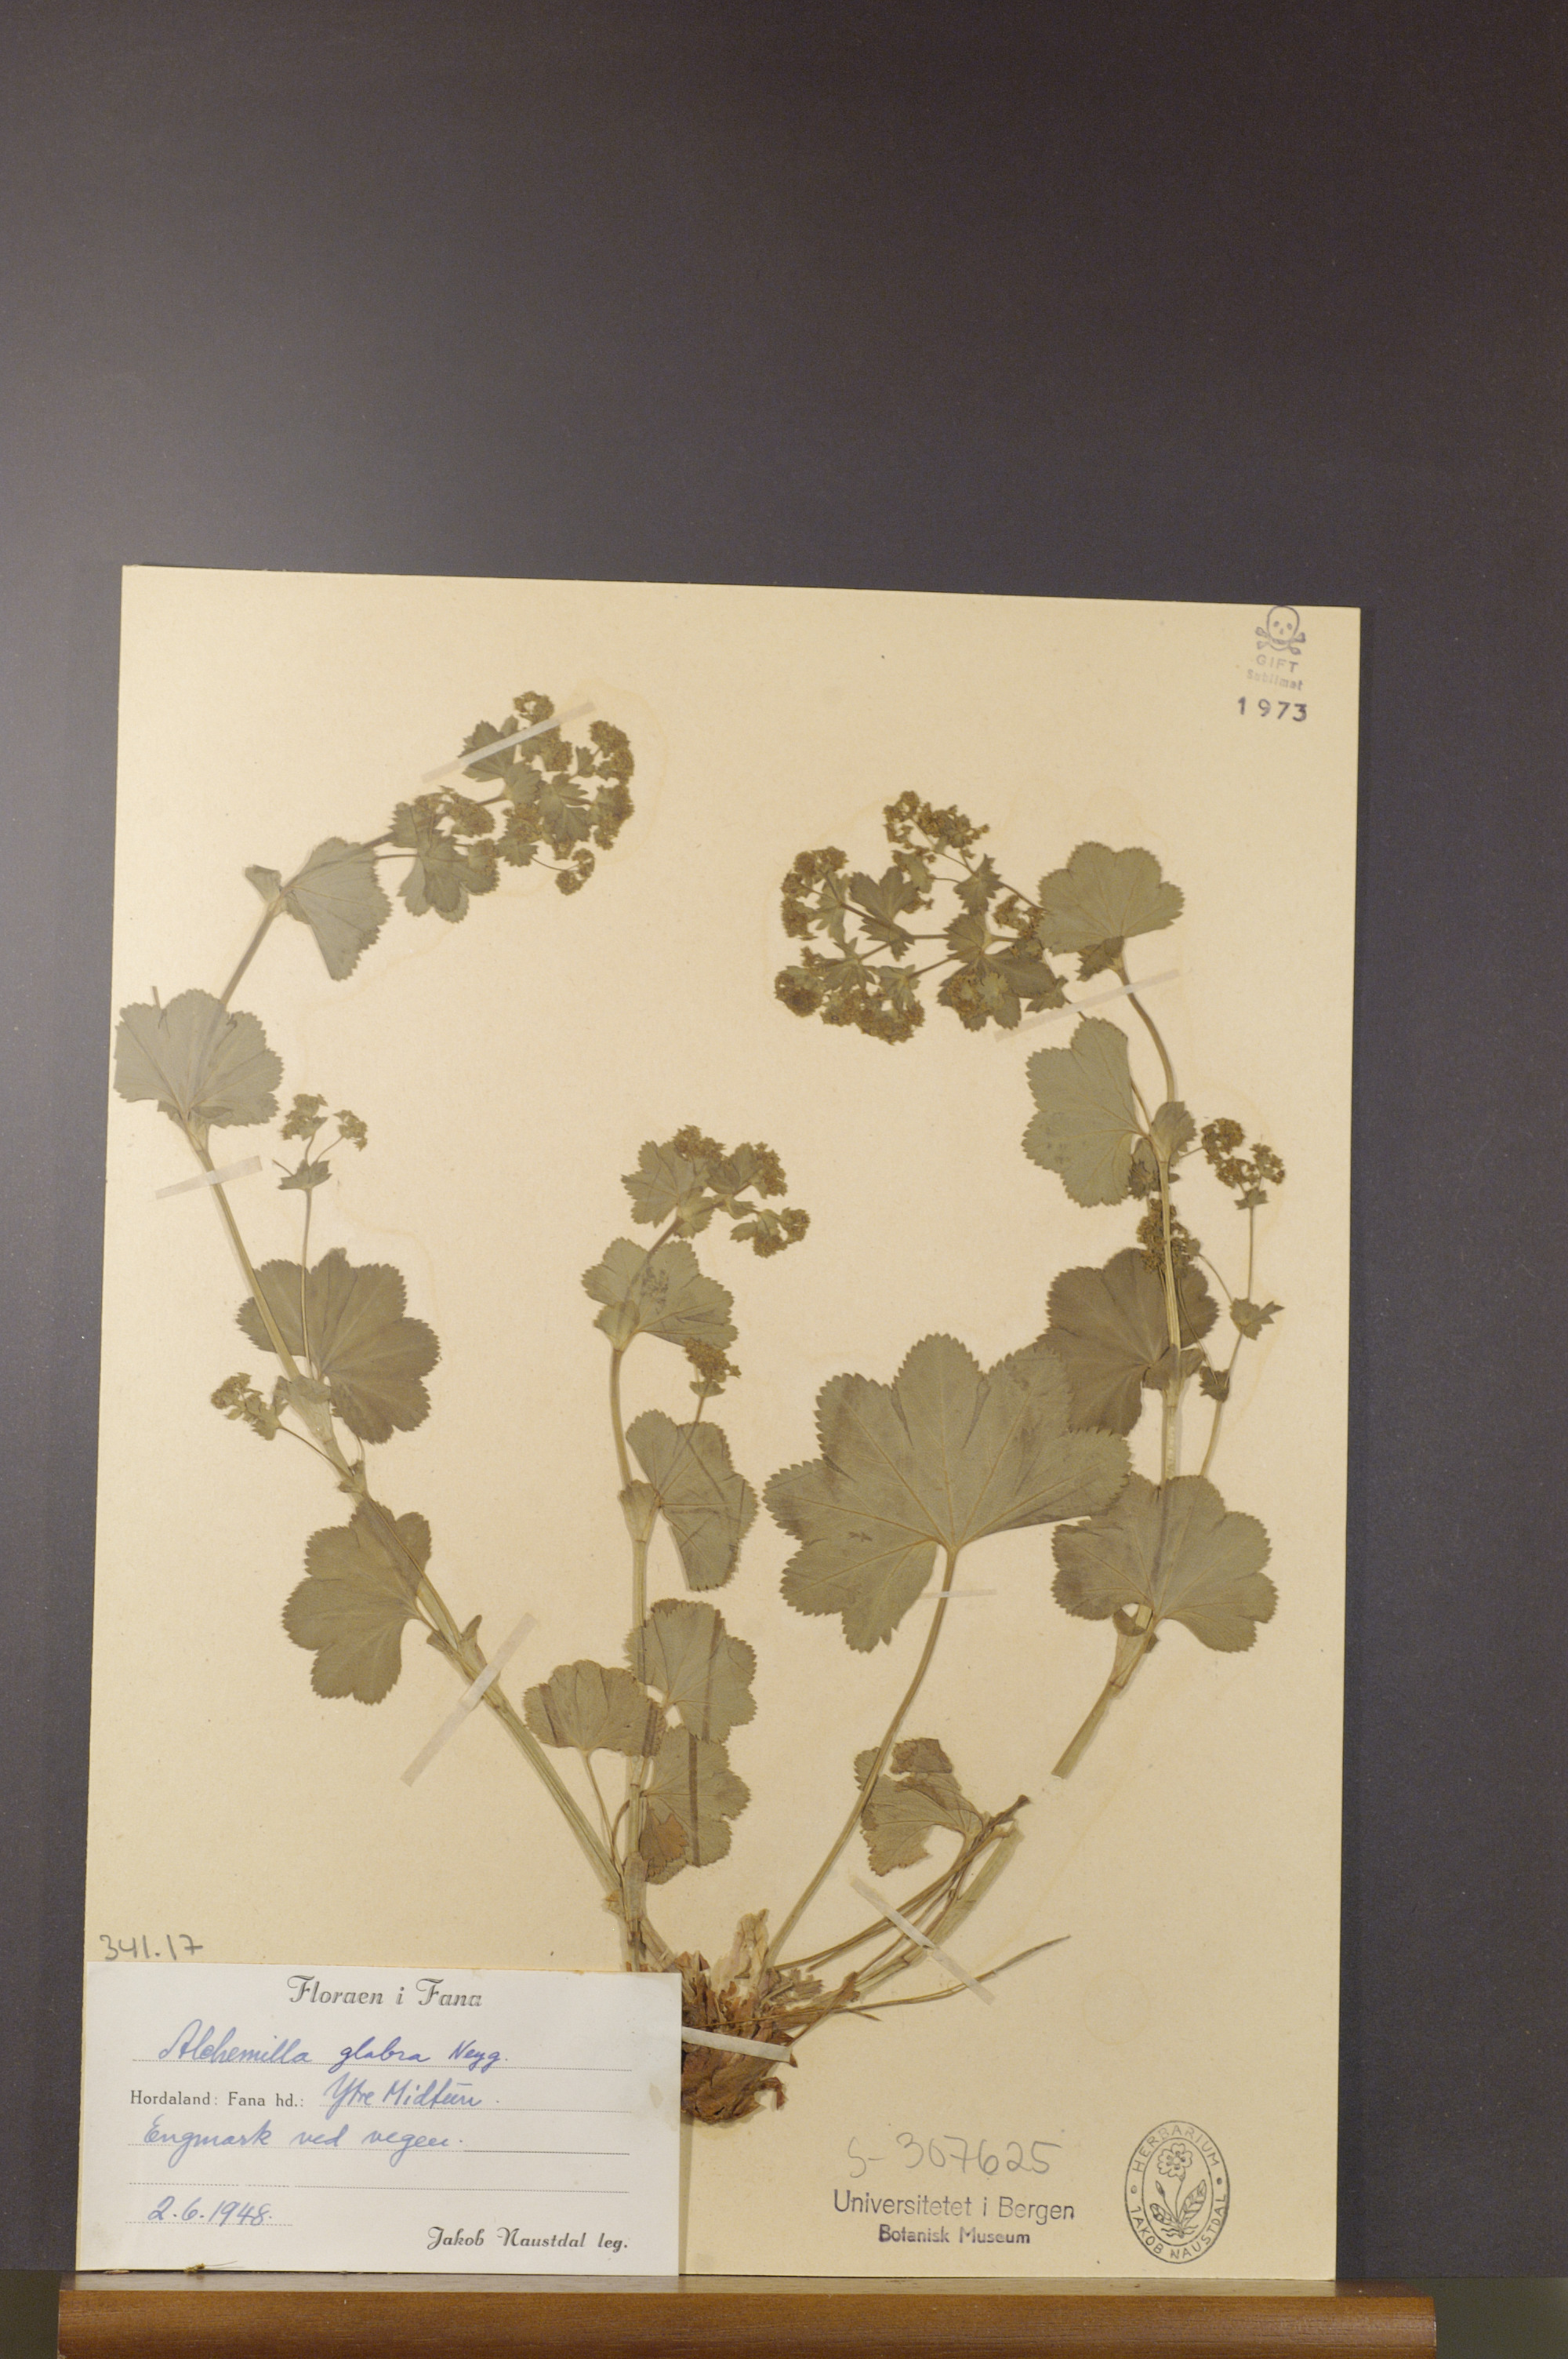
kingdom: Plantae
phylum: Tracheophyta
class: Magnoliopsida
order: Rosales
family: Rosaceae
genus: Alchemilla
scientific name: Alchemilla glabra
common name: Smooth lady's-mantle
